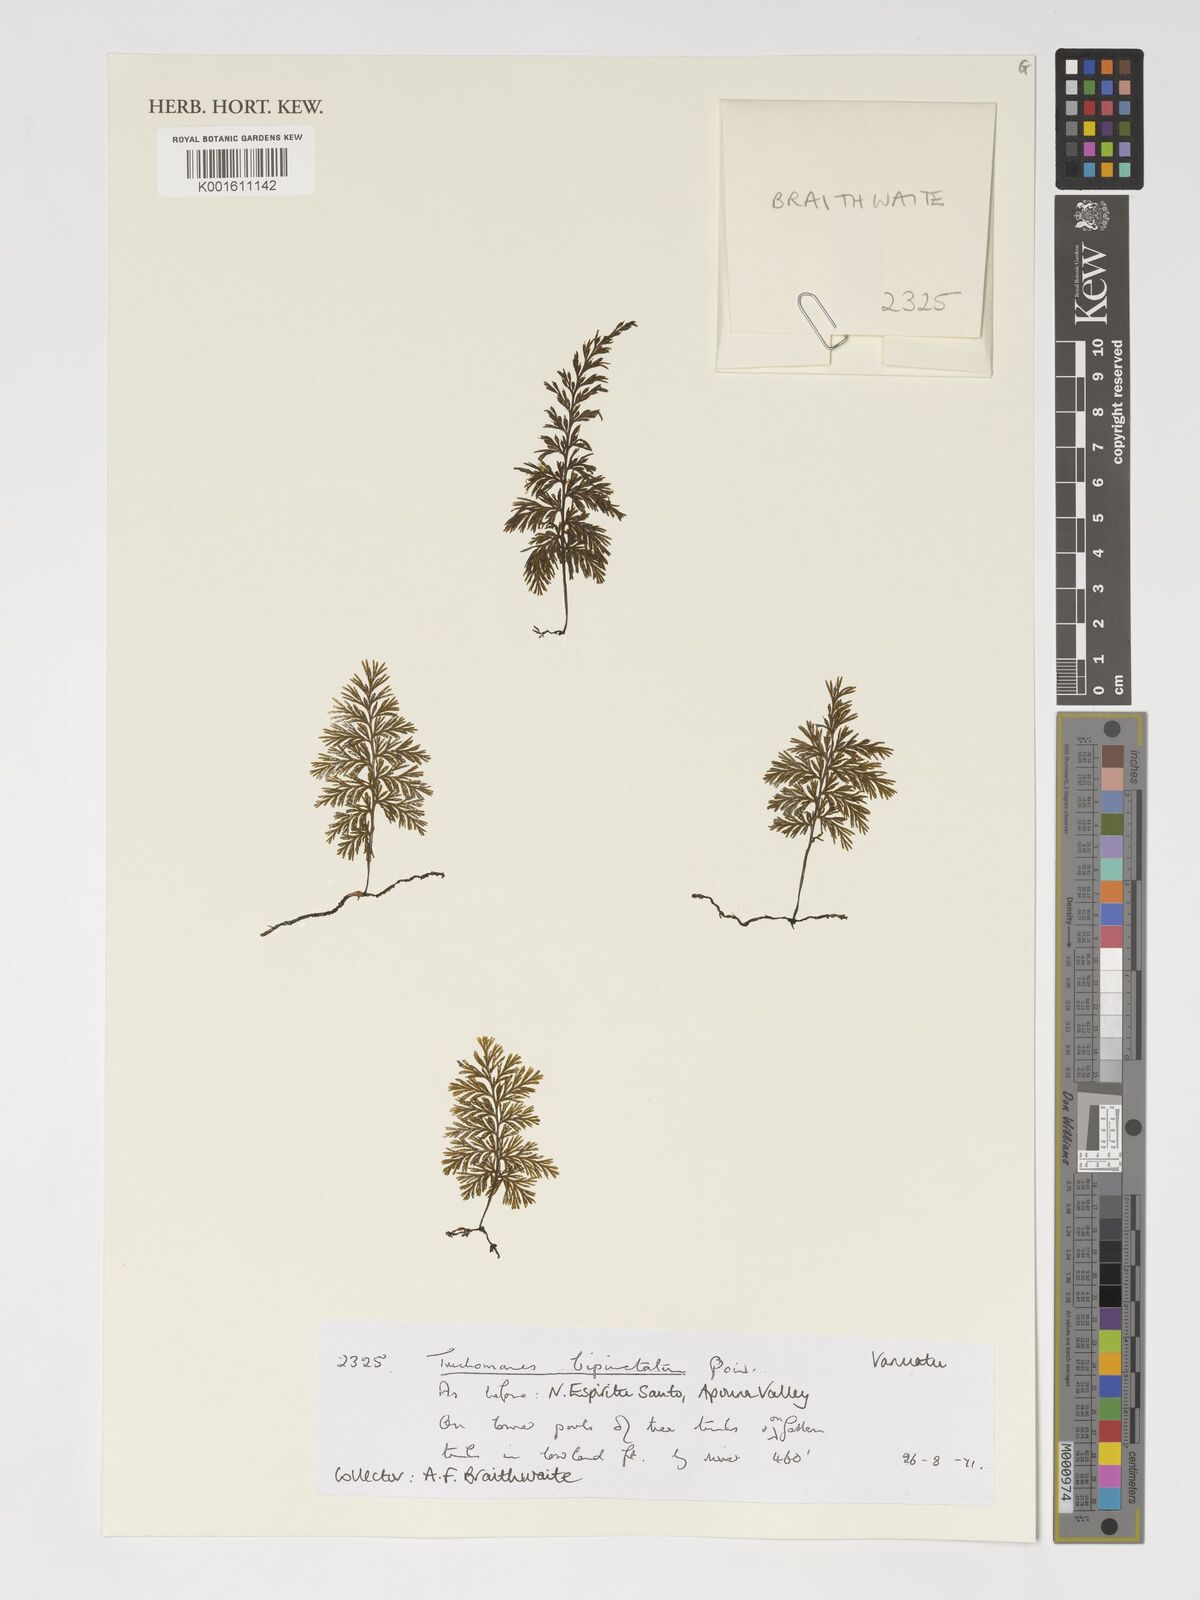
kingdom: Plantae
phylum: Tracheophyta
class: Polypodiopsida
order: Hymenophyllales
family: Hymenophyllaceae
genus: Crepidomanes
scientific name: Crepidomanes bipunctatum
